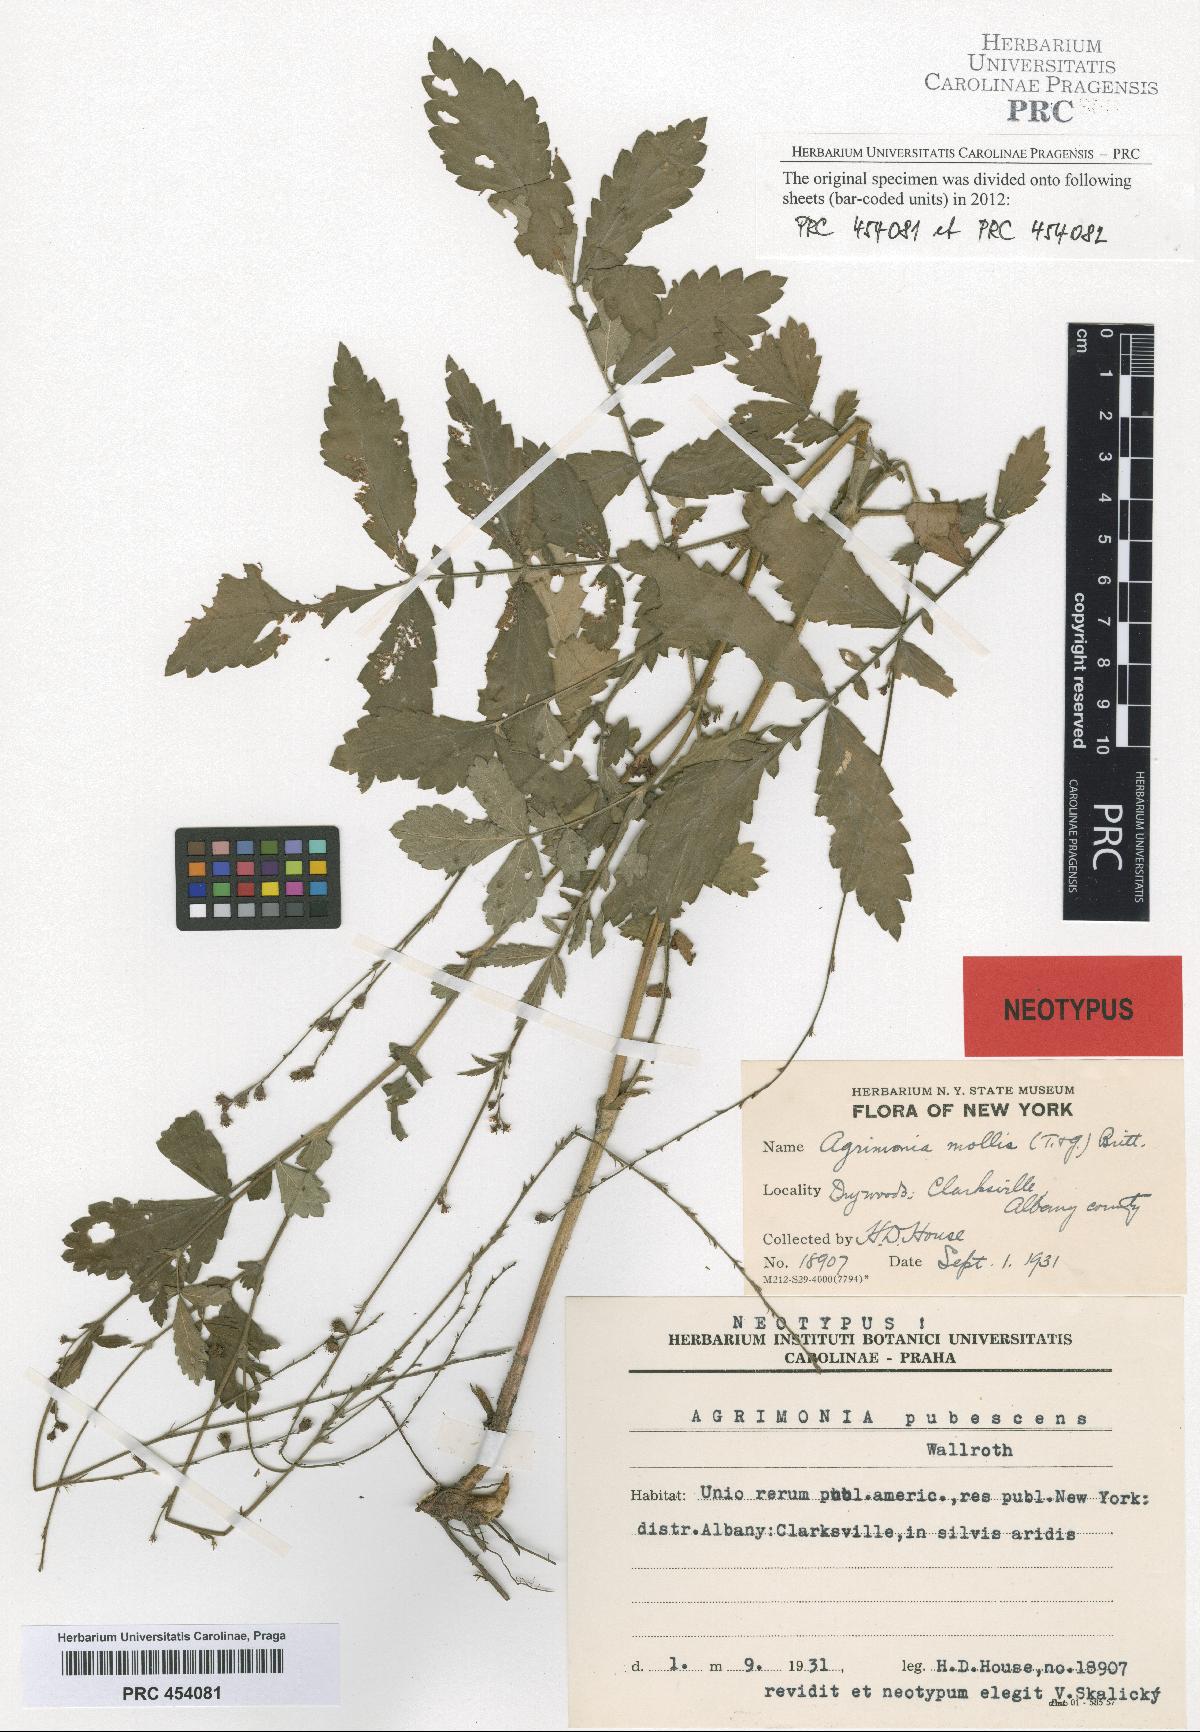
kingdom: Plantae
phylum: Tracheophyta
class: Magnoliopsida
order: Rosales
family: Rosaceae
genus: Agrimonia
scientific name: Agrimonia pubescens
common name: Downy agrimony
